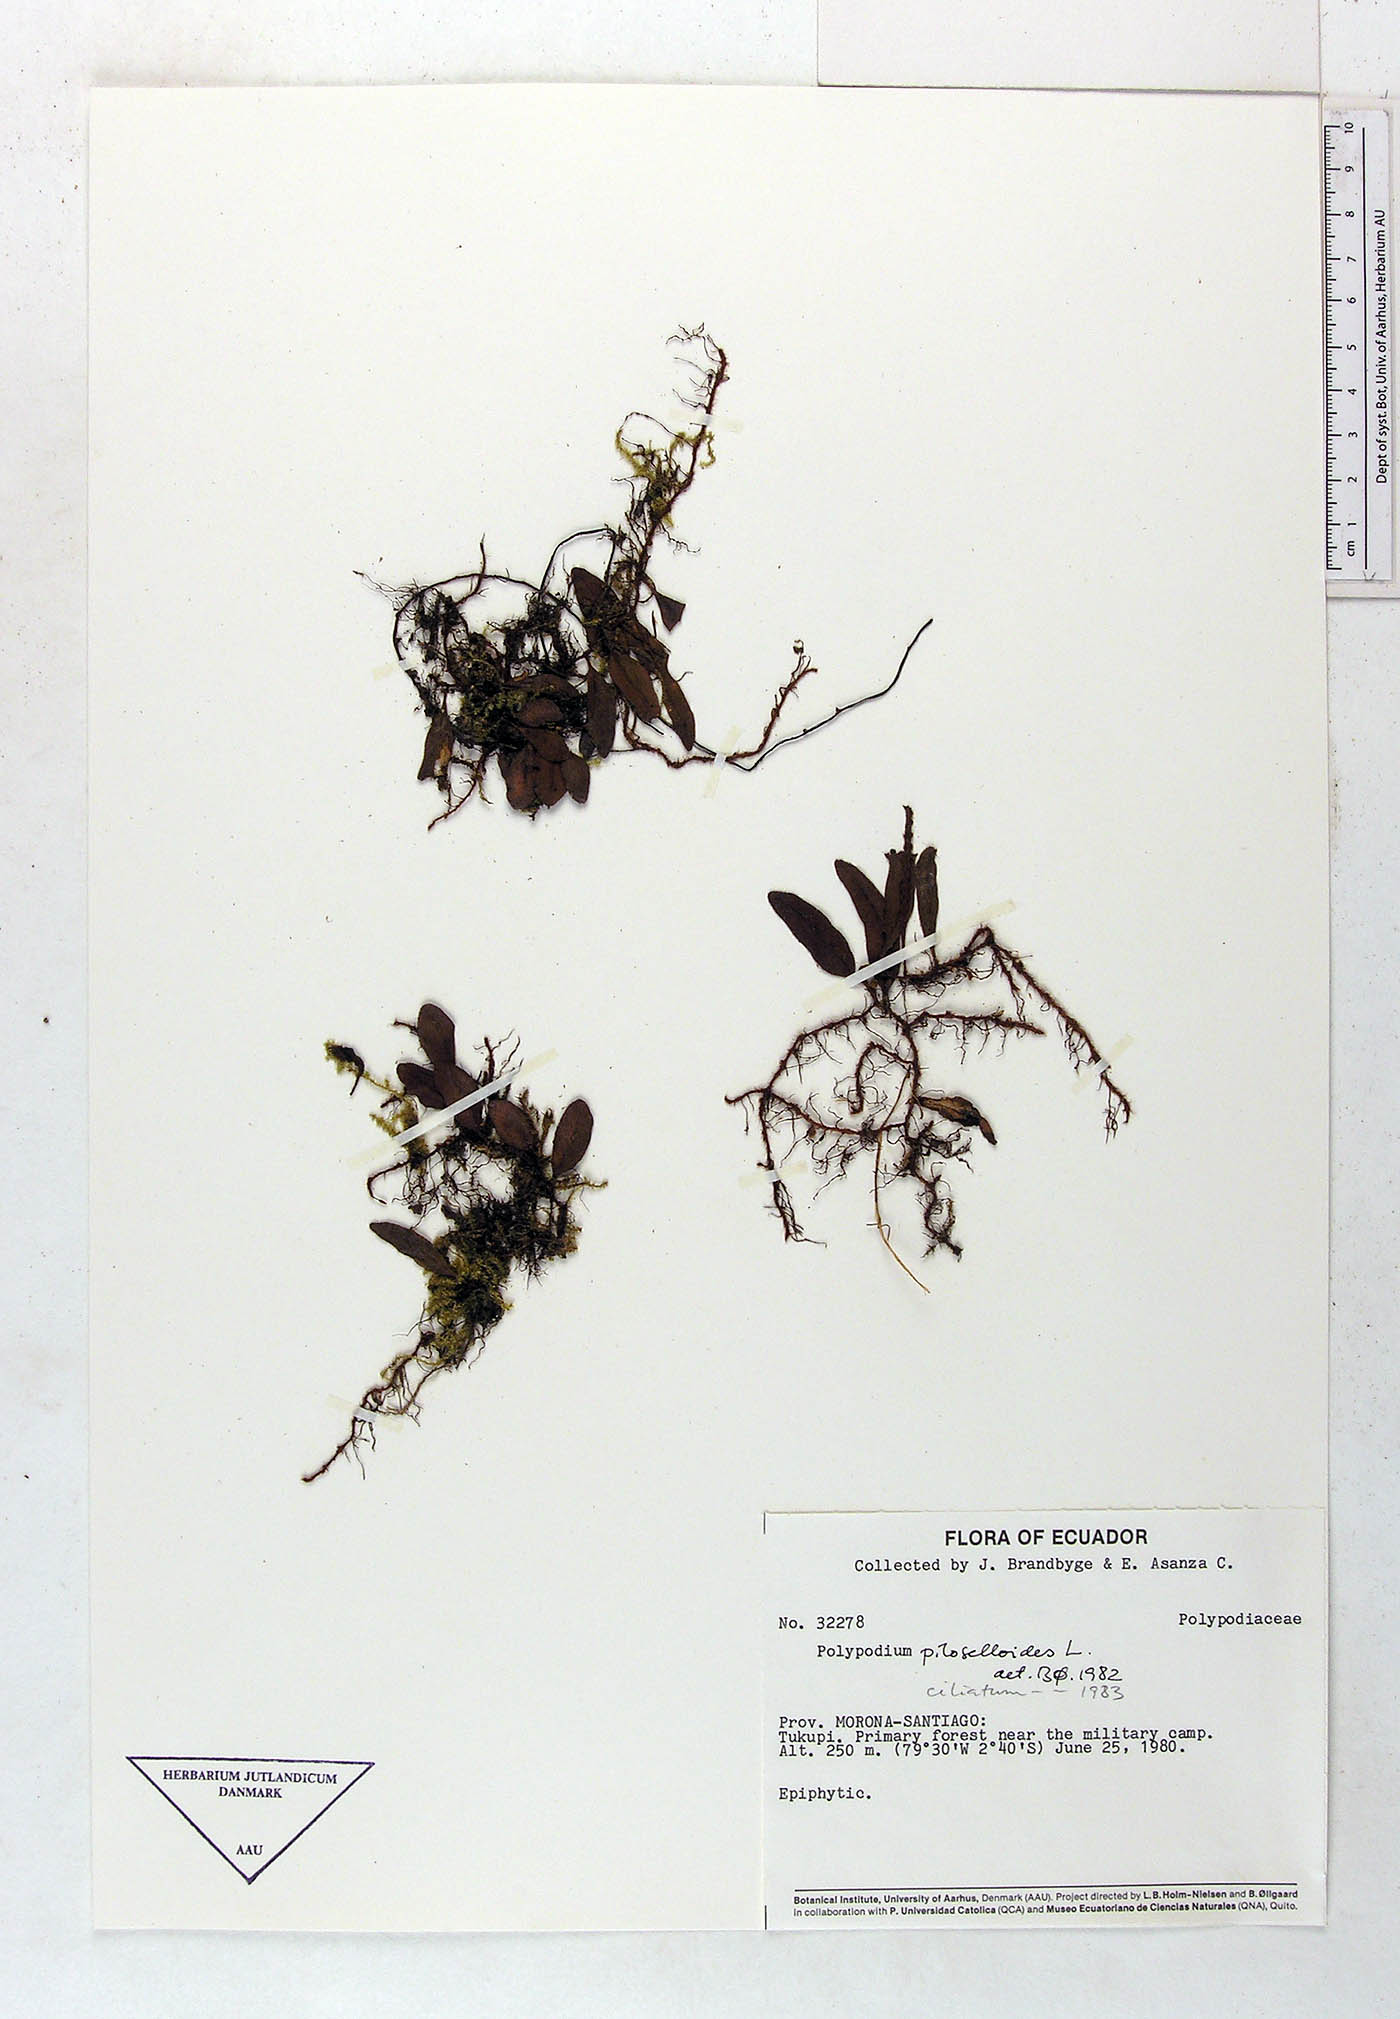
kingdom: Plantae
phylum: Tracheophyta
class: Polypodiopsida
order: Polypodiales
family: Polypodiaceae
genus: Microgramma
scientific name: Microgramma piloselloides
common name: Hairy snakefern
